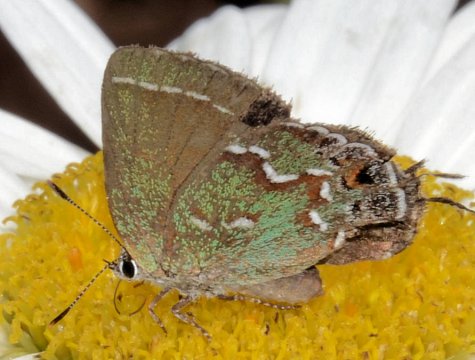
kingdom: Animalia
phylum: Arthropoda
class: Insecta
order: Lepidoptera
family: Lycaenidae
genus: Mitoura
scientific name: Mitoura gryneus
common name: Juniper Hairstreak
